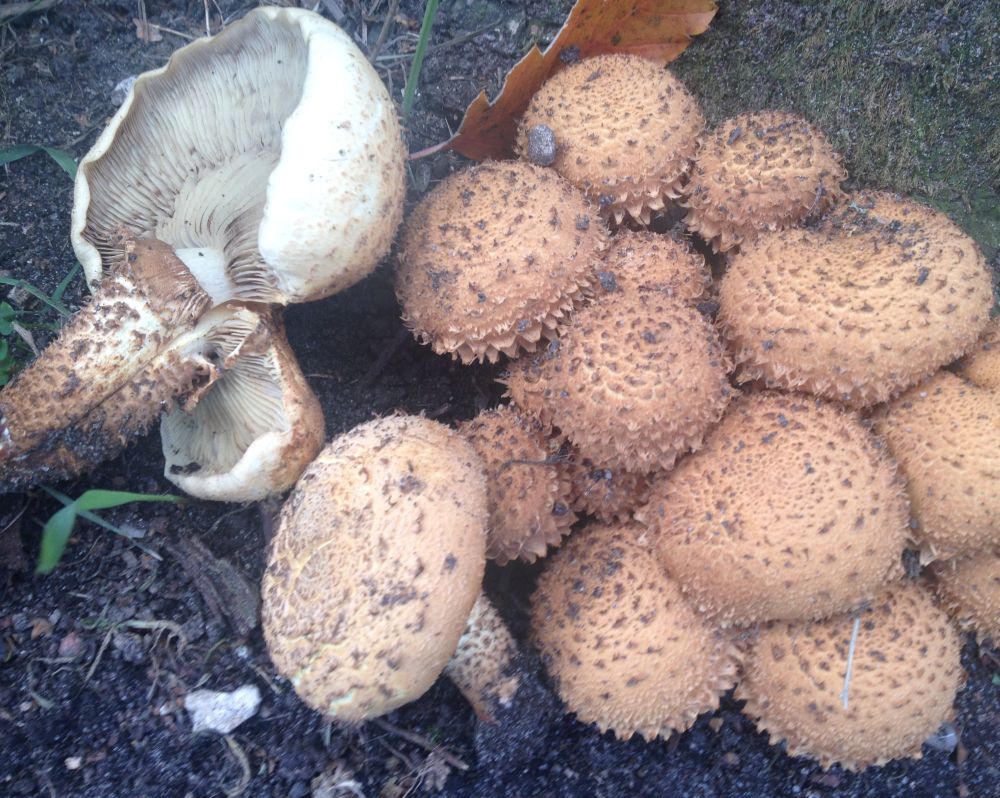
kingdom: Fungi
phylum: Basidiomycota
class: Agaricomycetes
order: Agaricales
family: Strophariaceae
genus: Pholiota
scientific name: Pholiota squarrosa
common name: krumskællet skælhat
